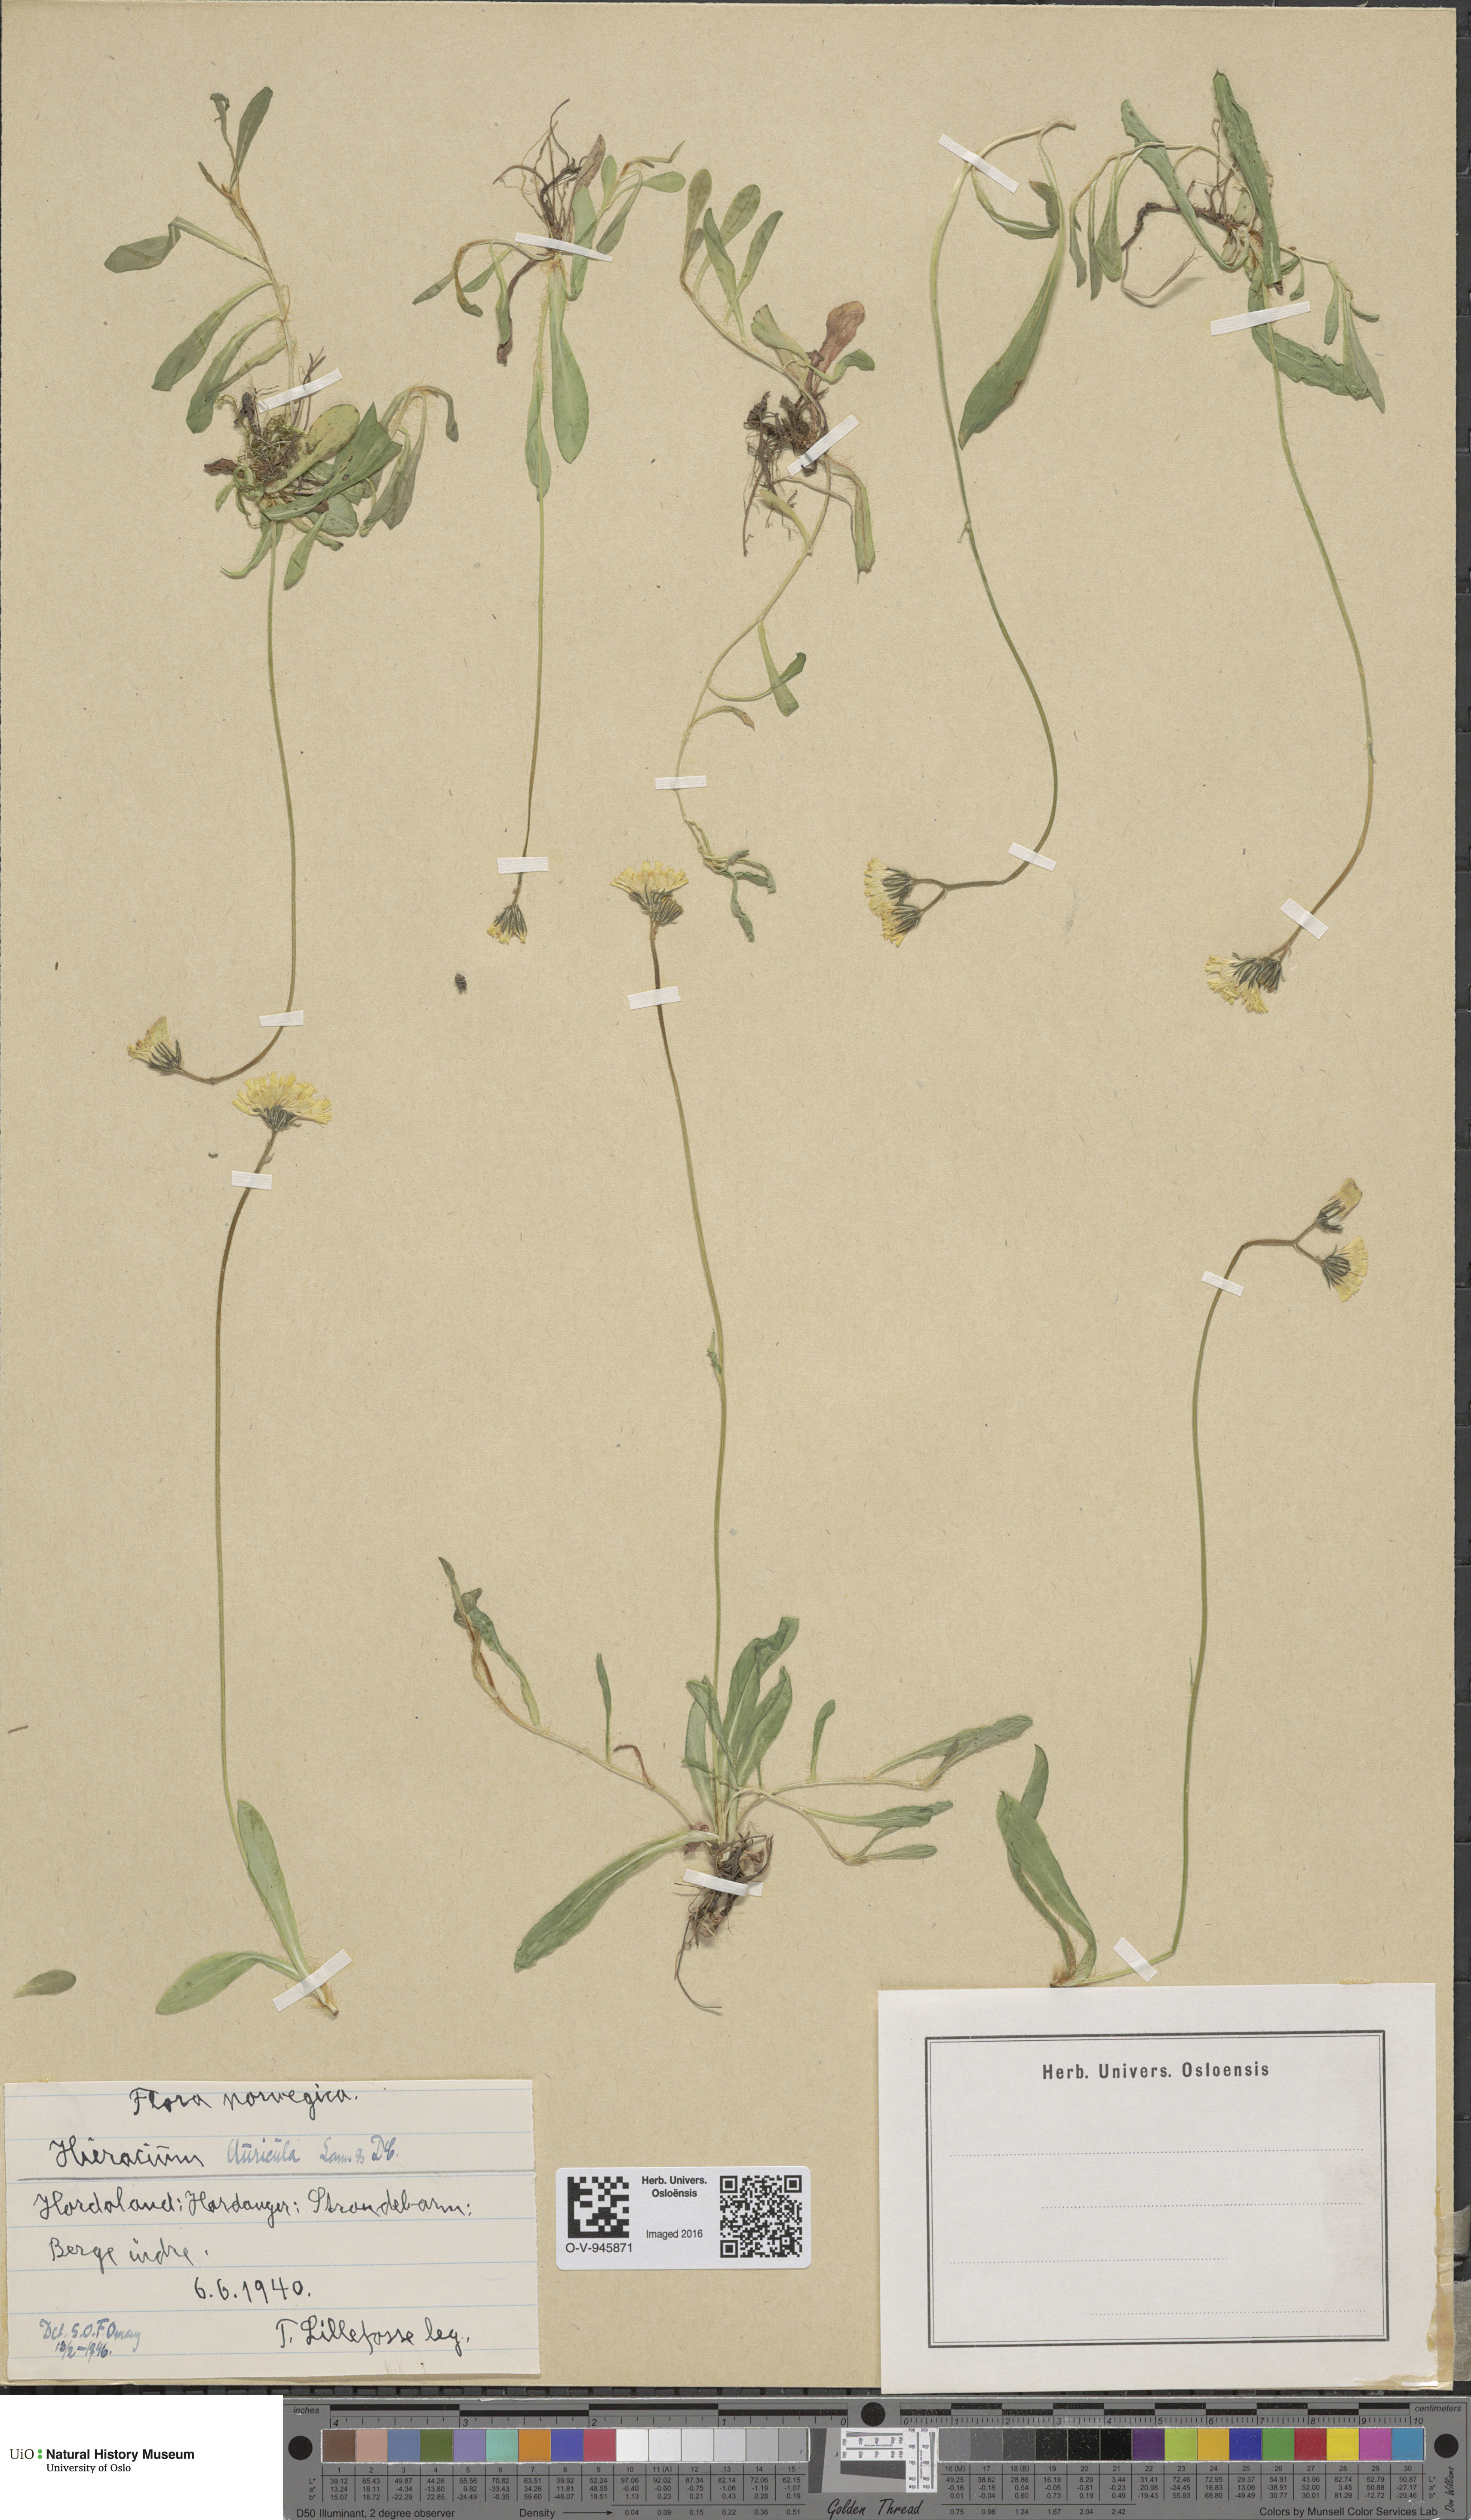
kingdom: Plantae
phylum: Tracheophyta
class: Magnoliopsida
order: Asterales
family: Asteraceae
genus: Pilosella
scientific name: Pilosella lactucella
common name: Glaucous fox-and-cubs
